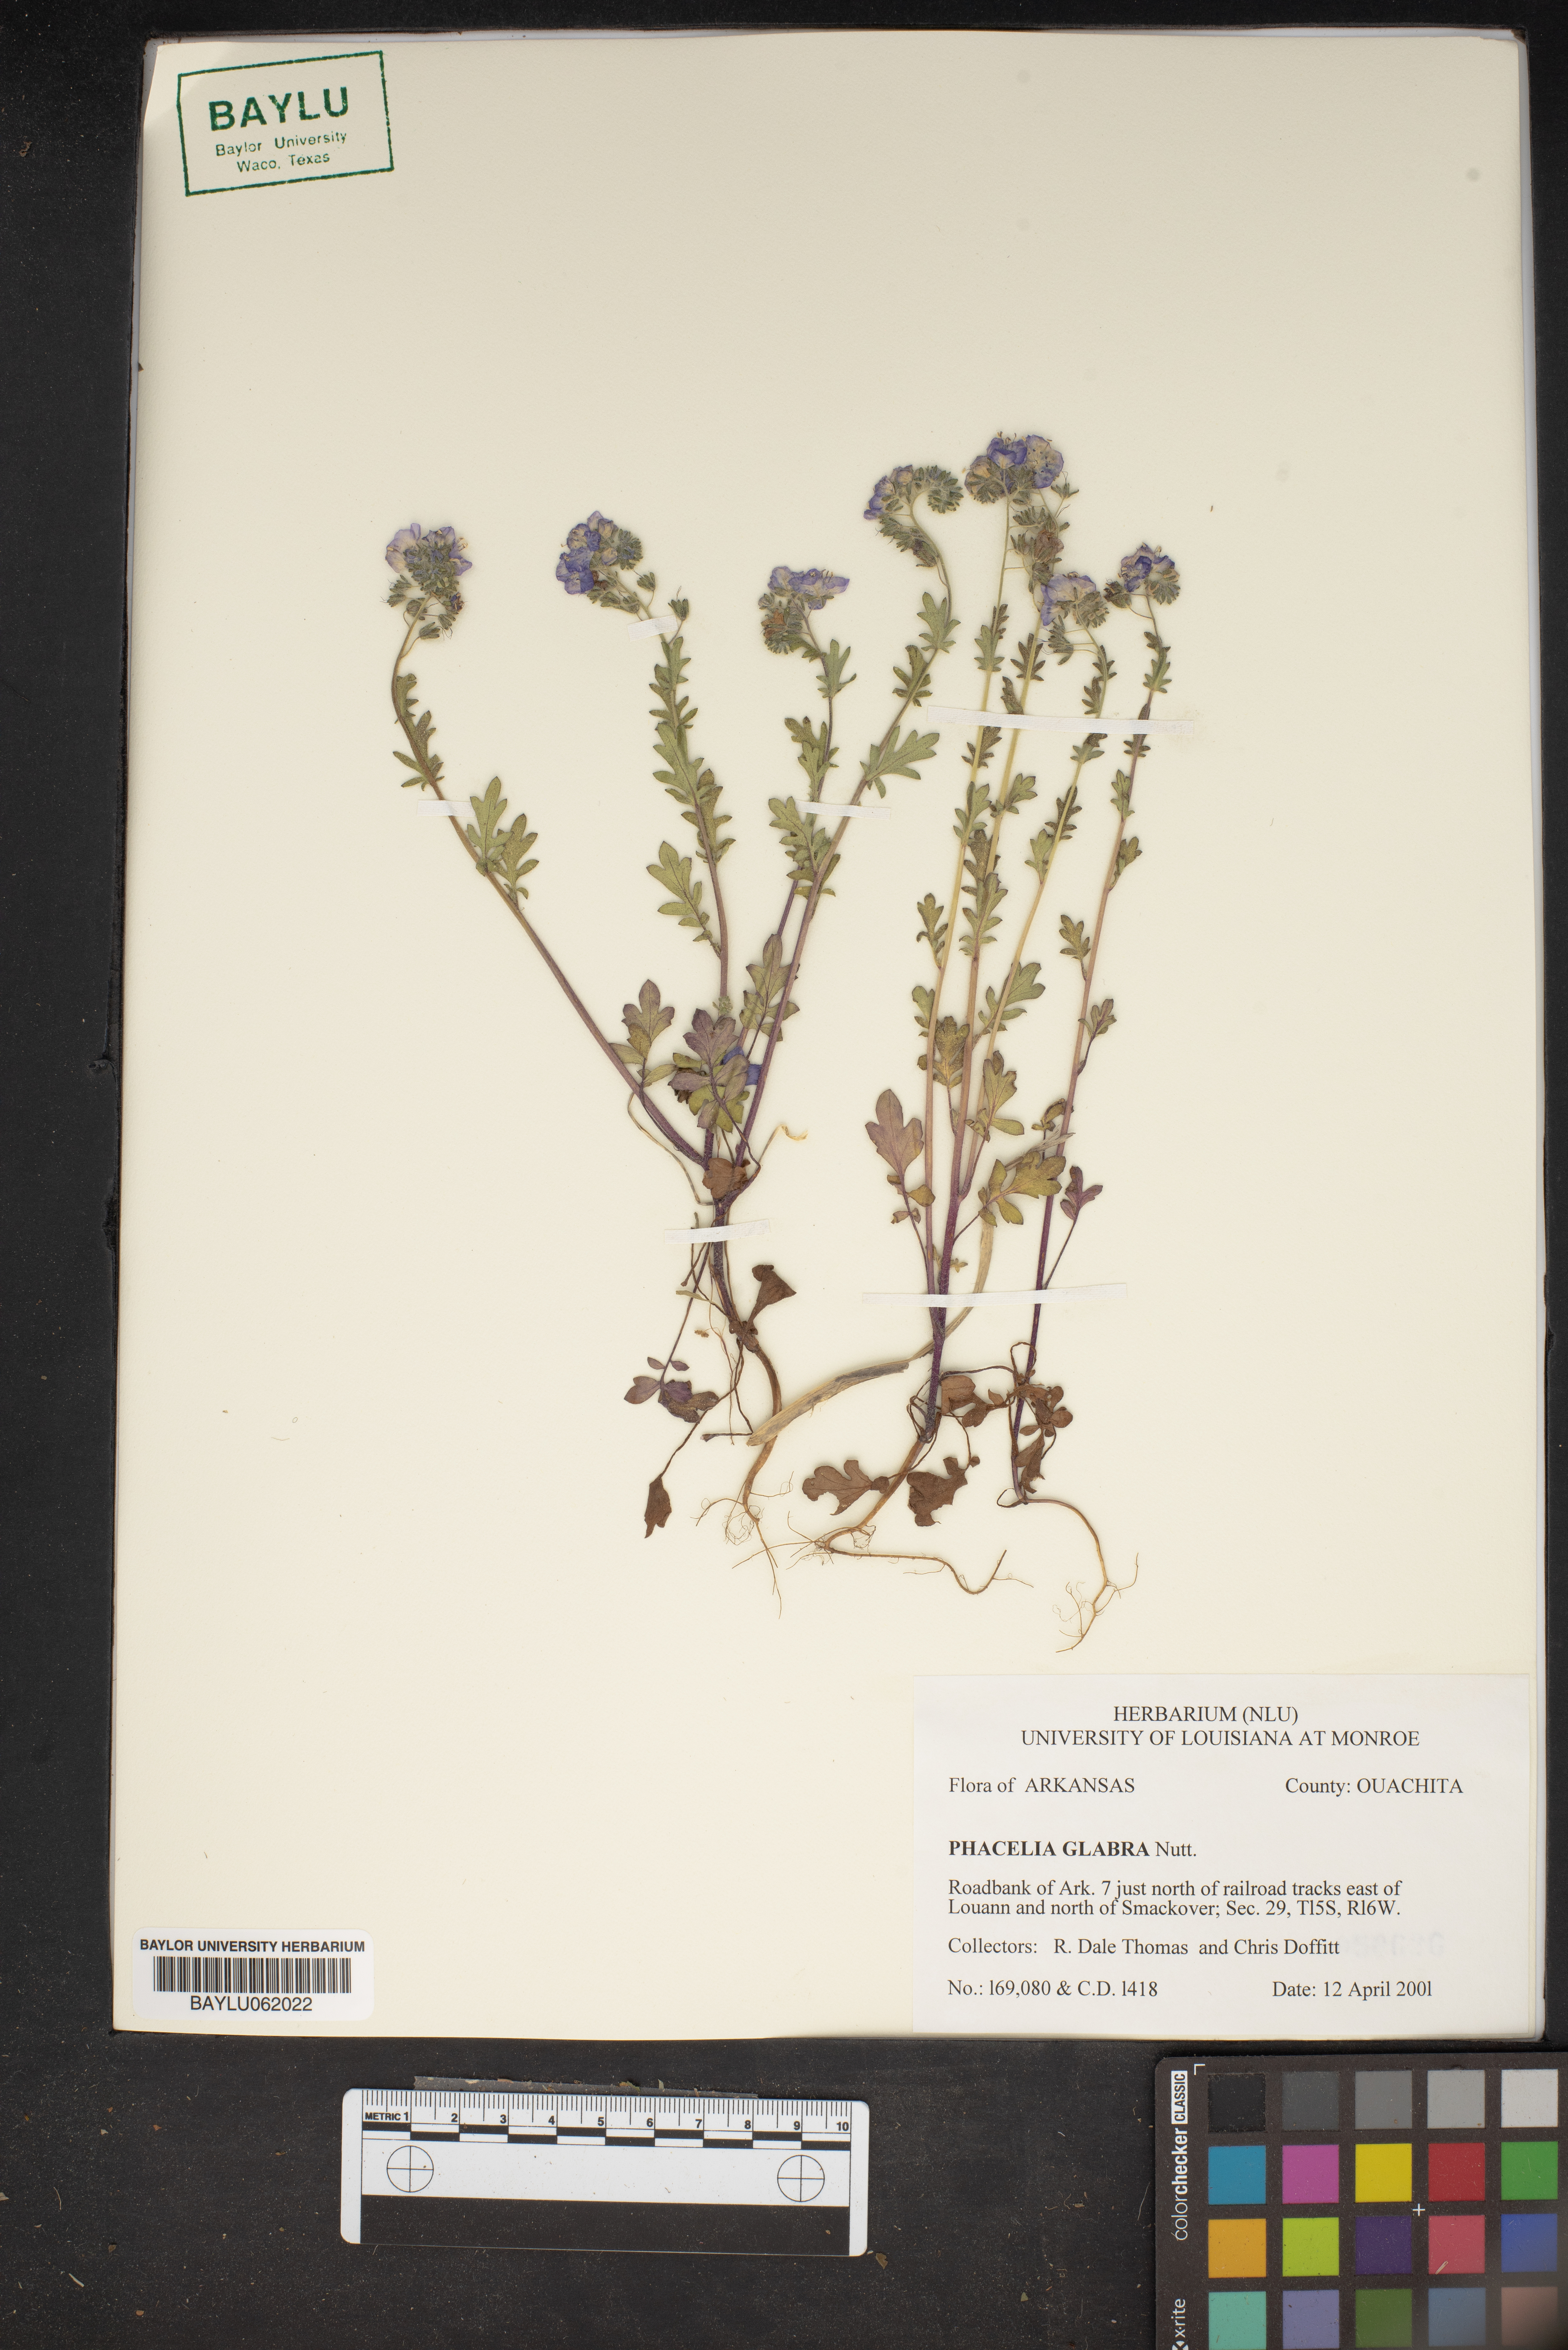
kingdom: Plantae
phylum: Tracheophyta
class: Magnoliopsida
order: Boraginales
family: Hydrophyllaceae
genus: Phacelia
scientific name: Phacelia glabra
